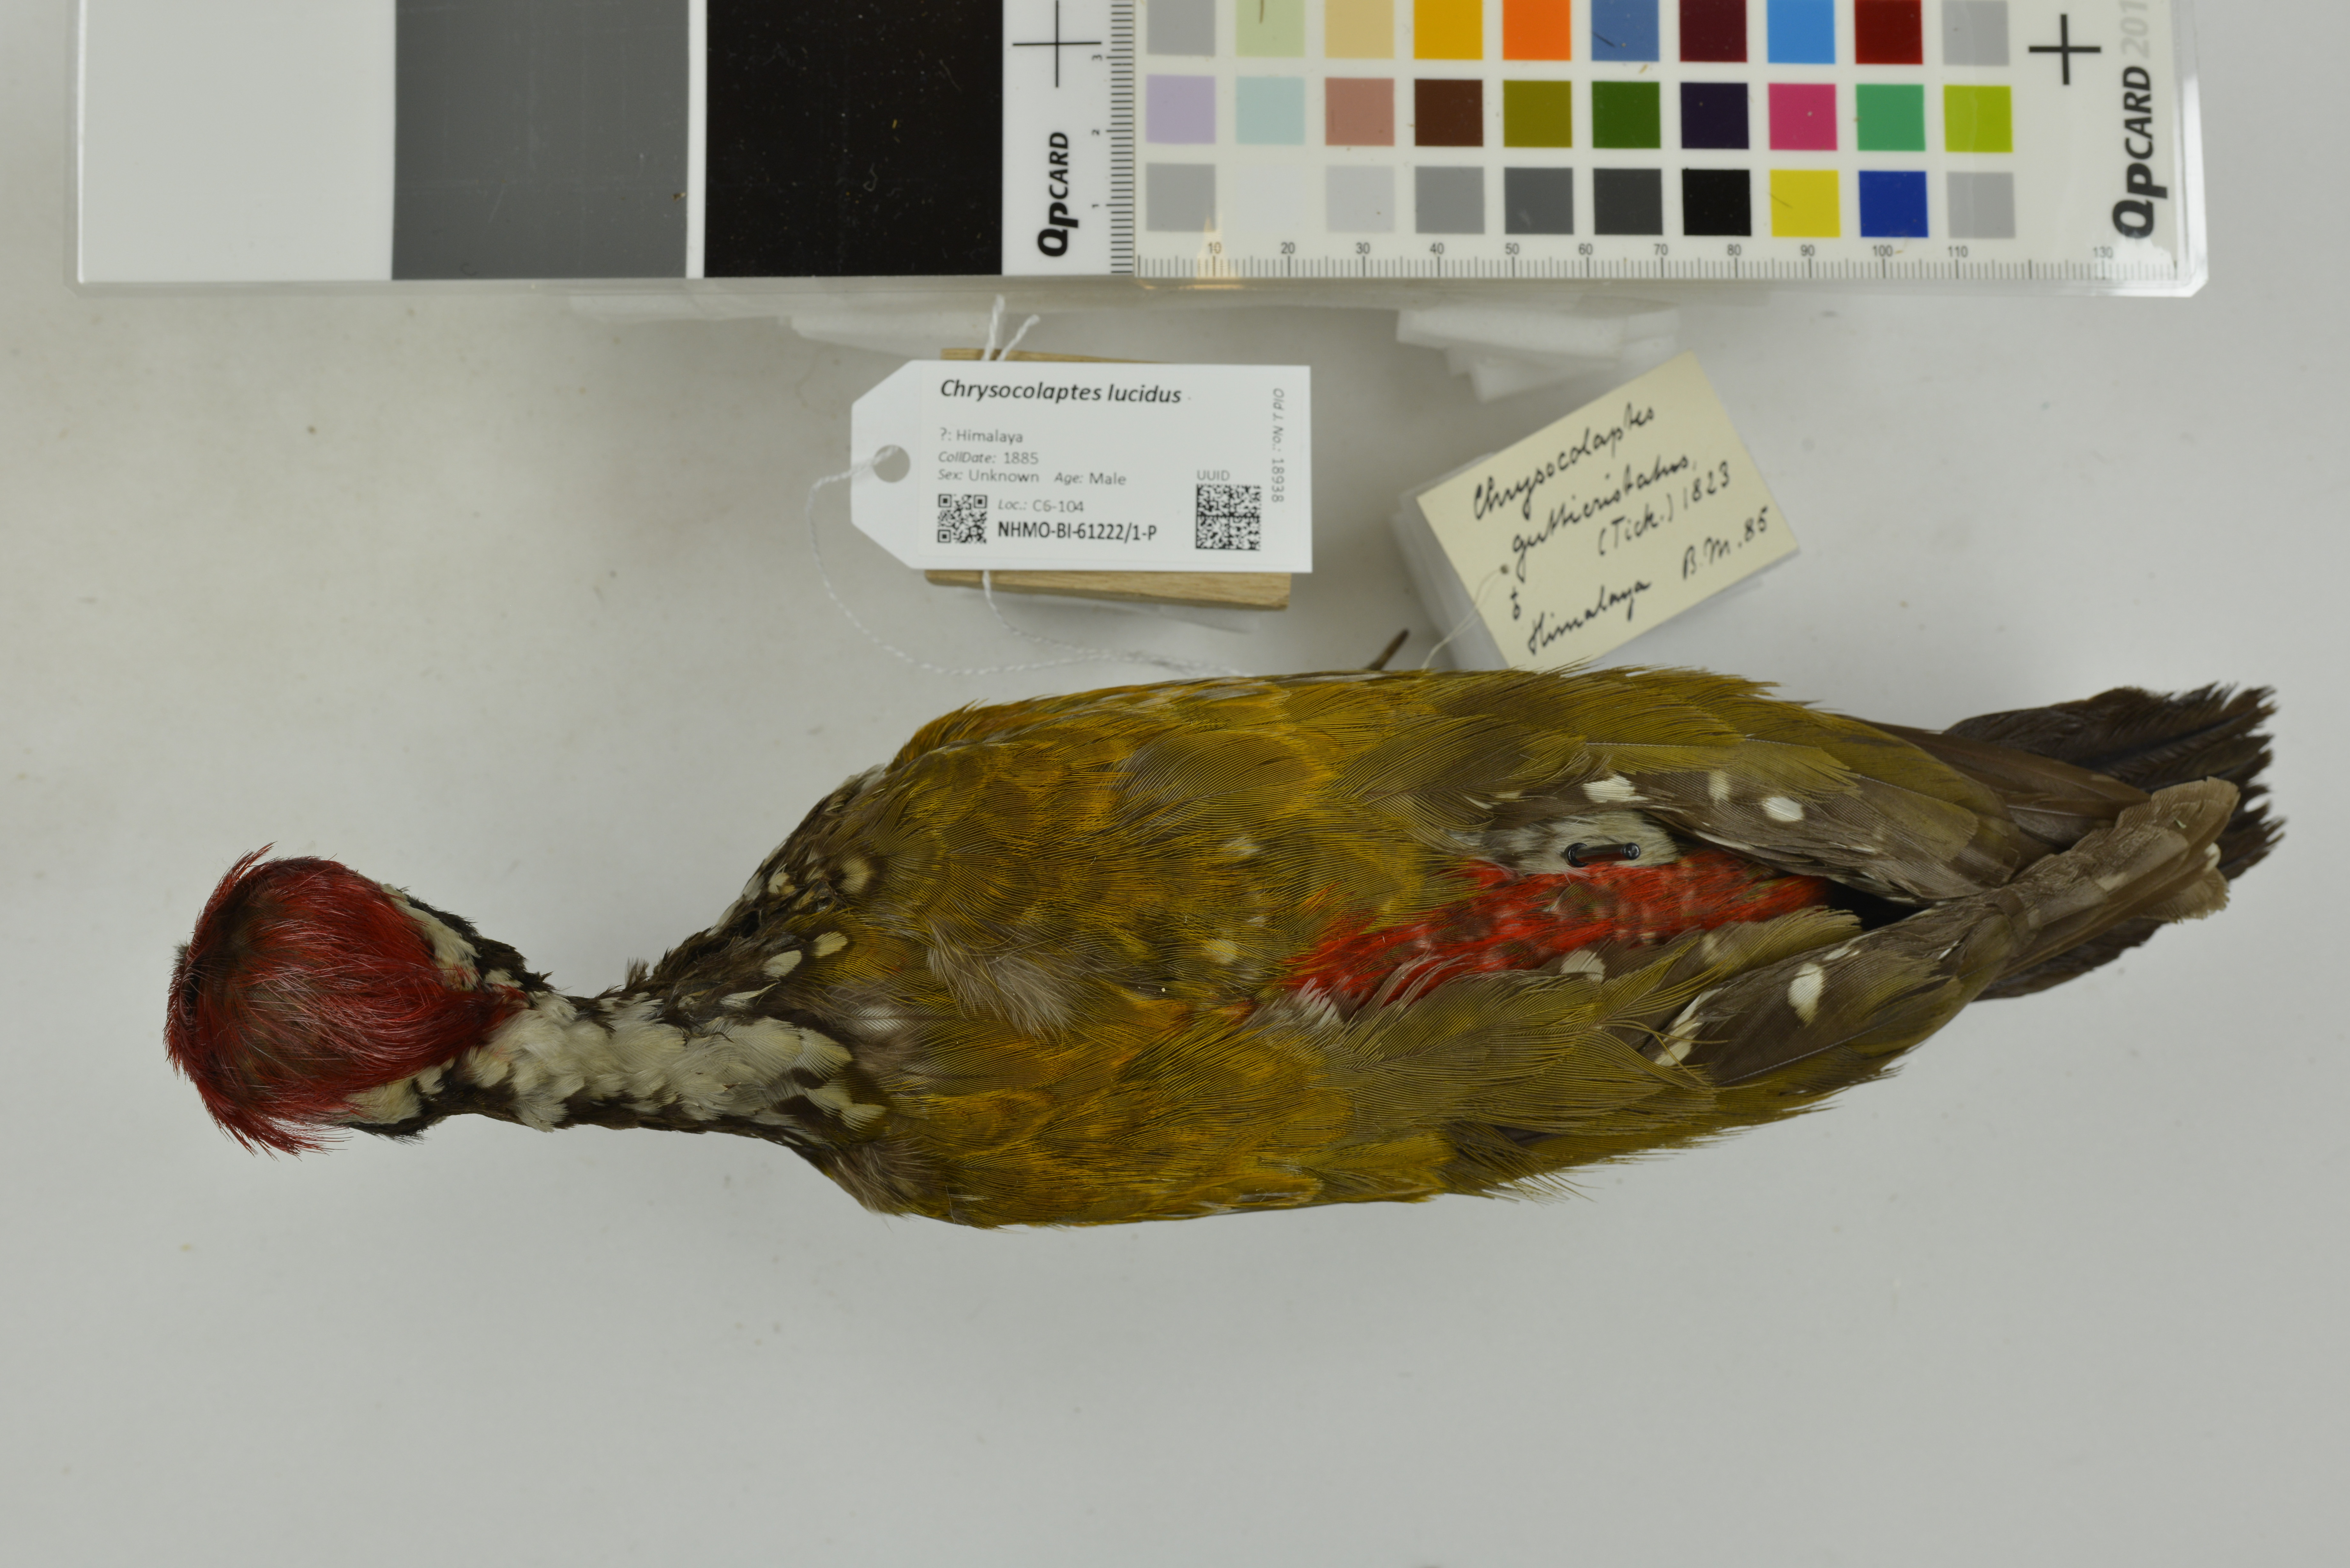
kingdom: Animalia
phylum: Chordata
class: Aves
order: Piciformes
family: Picidae
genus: Chrysocolaptes
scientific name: Chrysocolaptes lucidus
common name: Buff-spotted flameback
